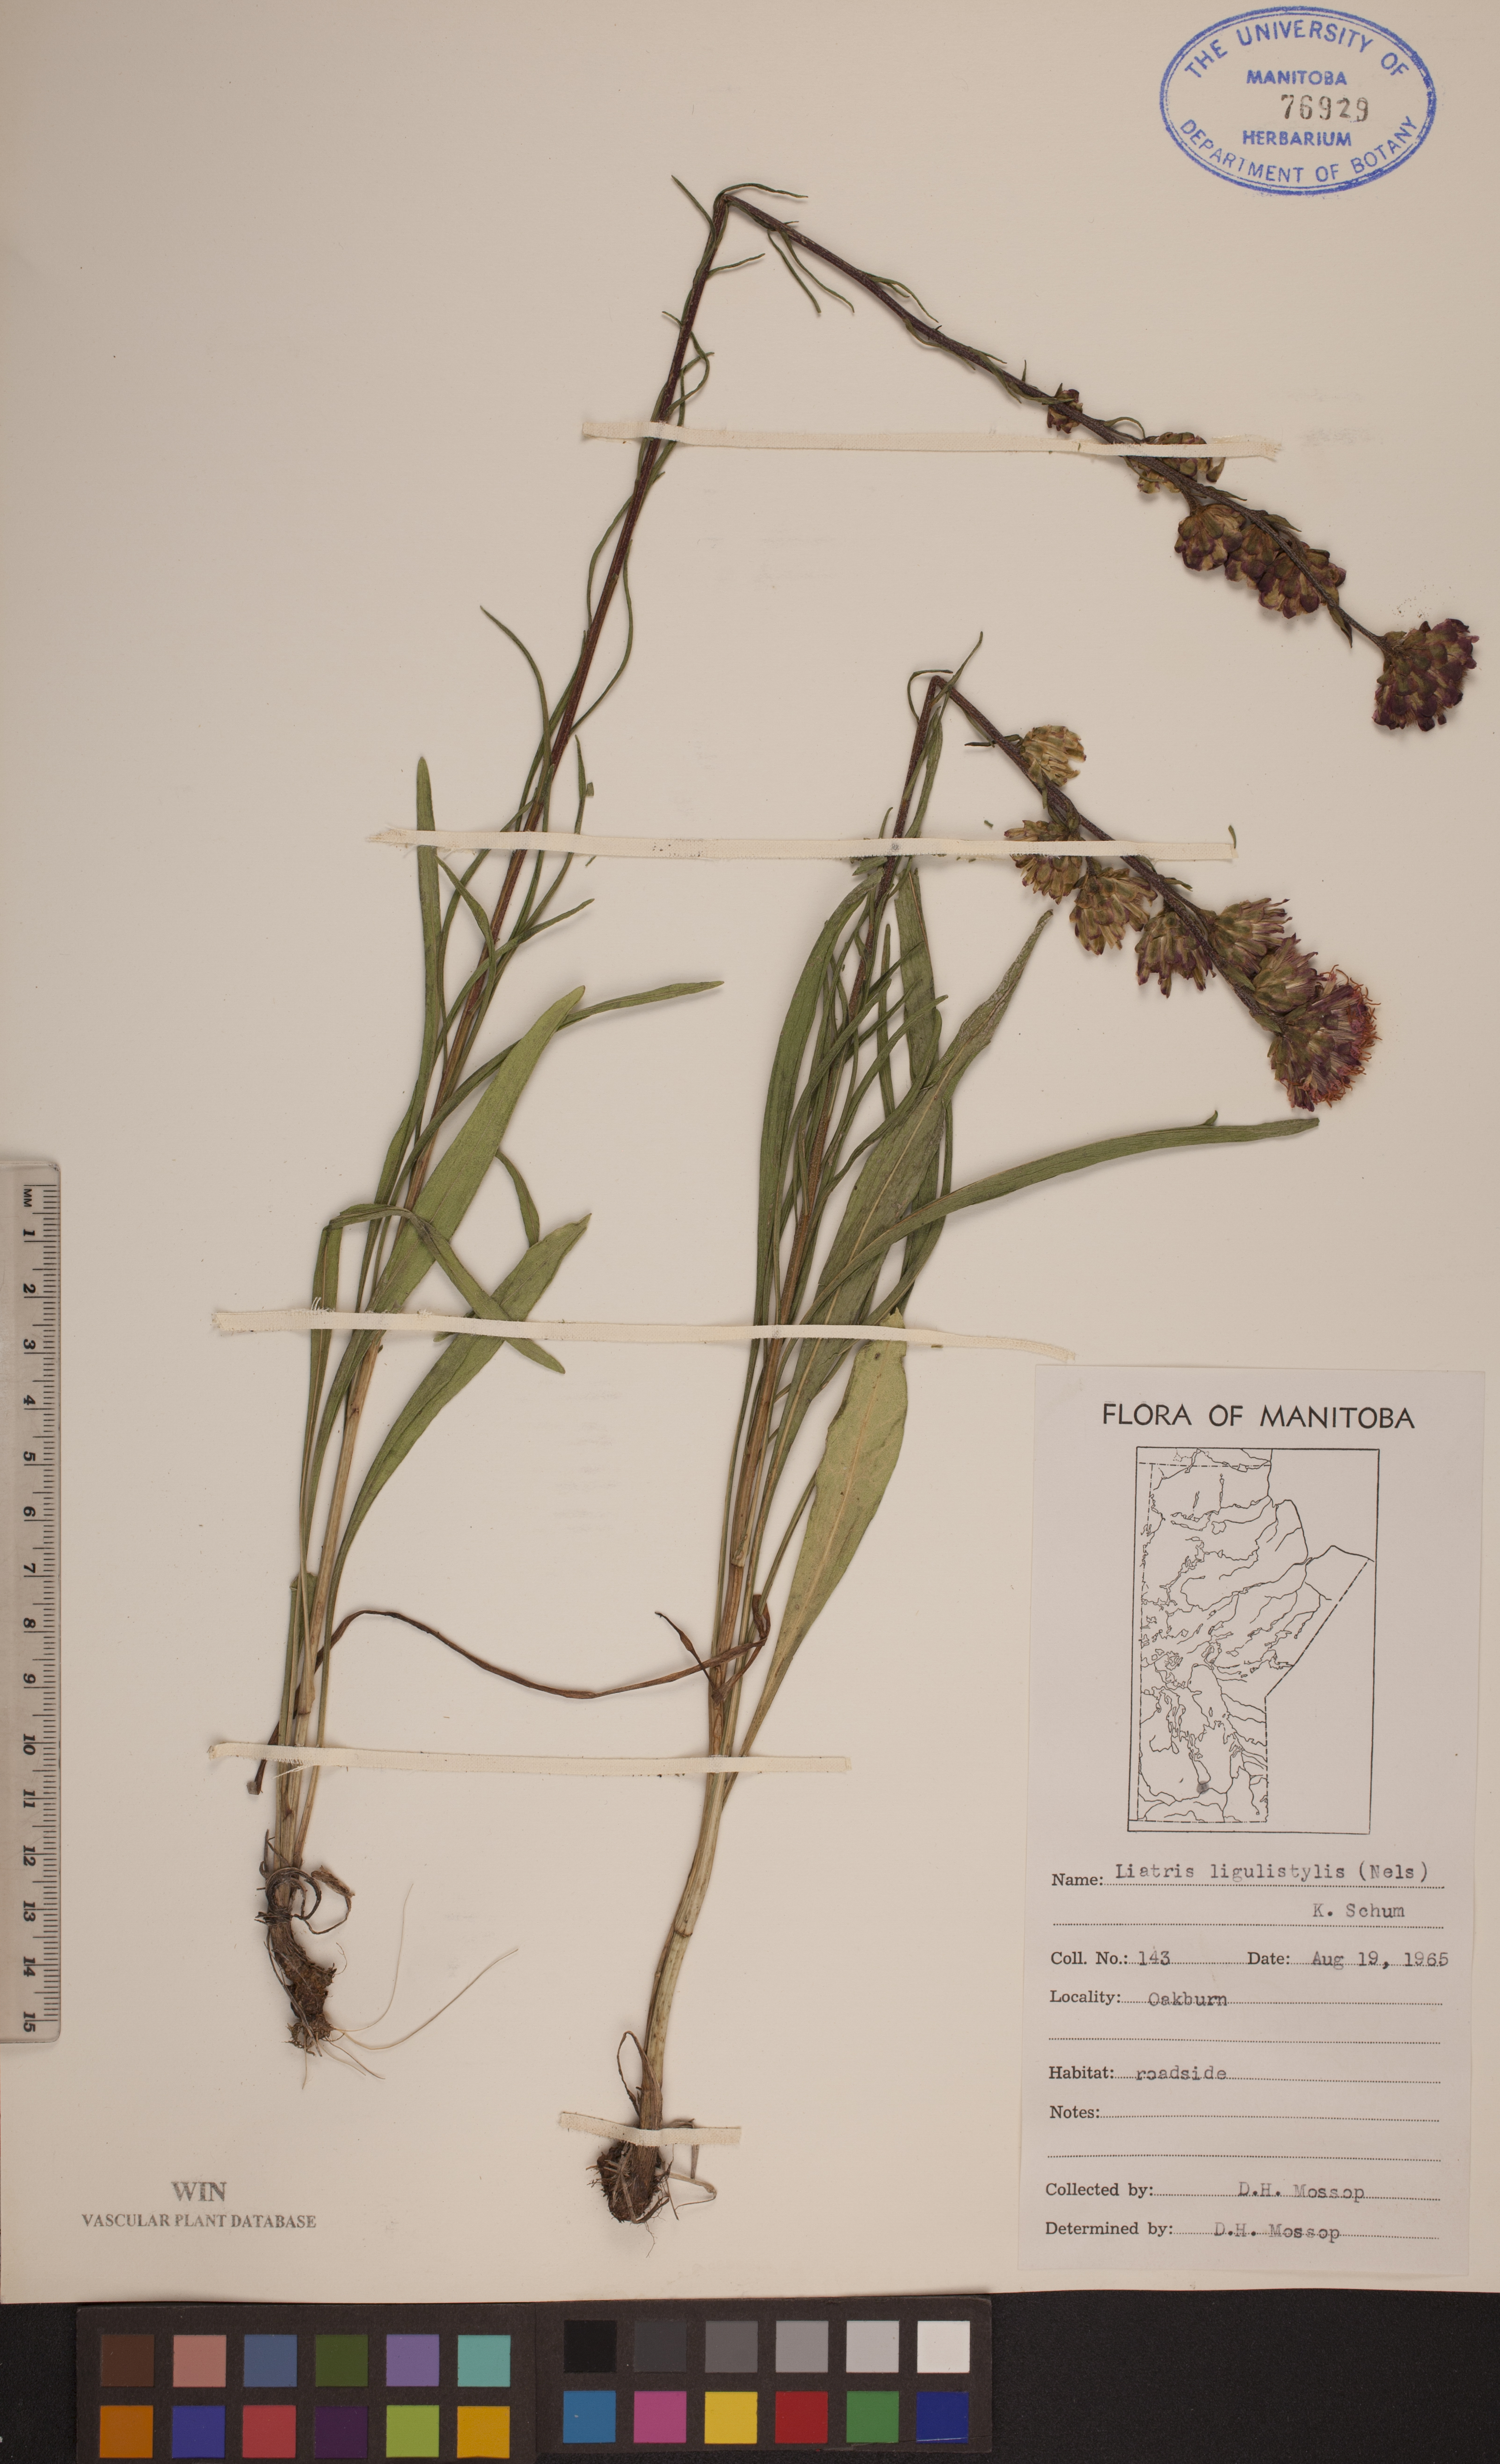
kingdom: Plantae
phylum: Tracheophyta
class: Magnoliopsida
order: Asterales
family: Asteraceae
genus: Liatris
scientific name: Liatris ligulistylis
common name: Northern plains gayfeather
